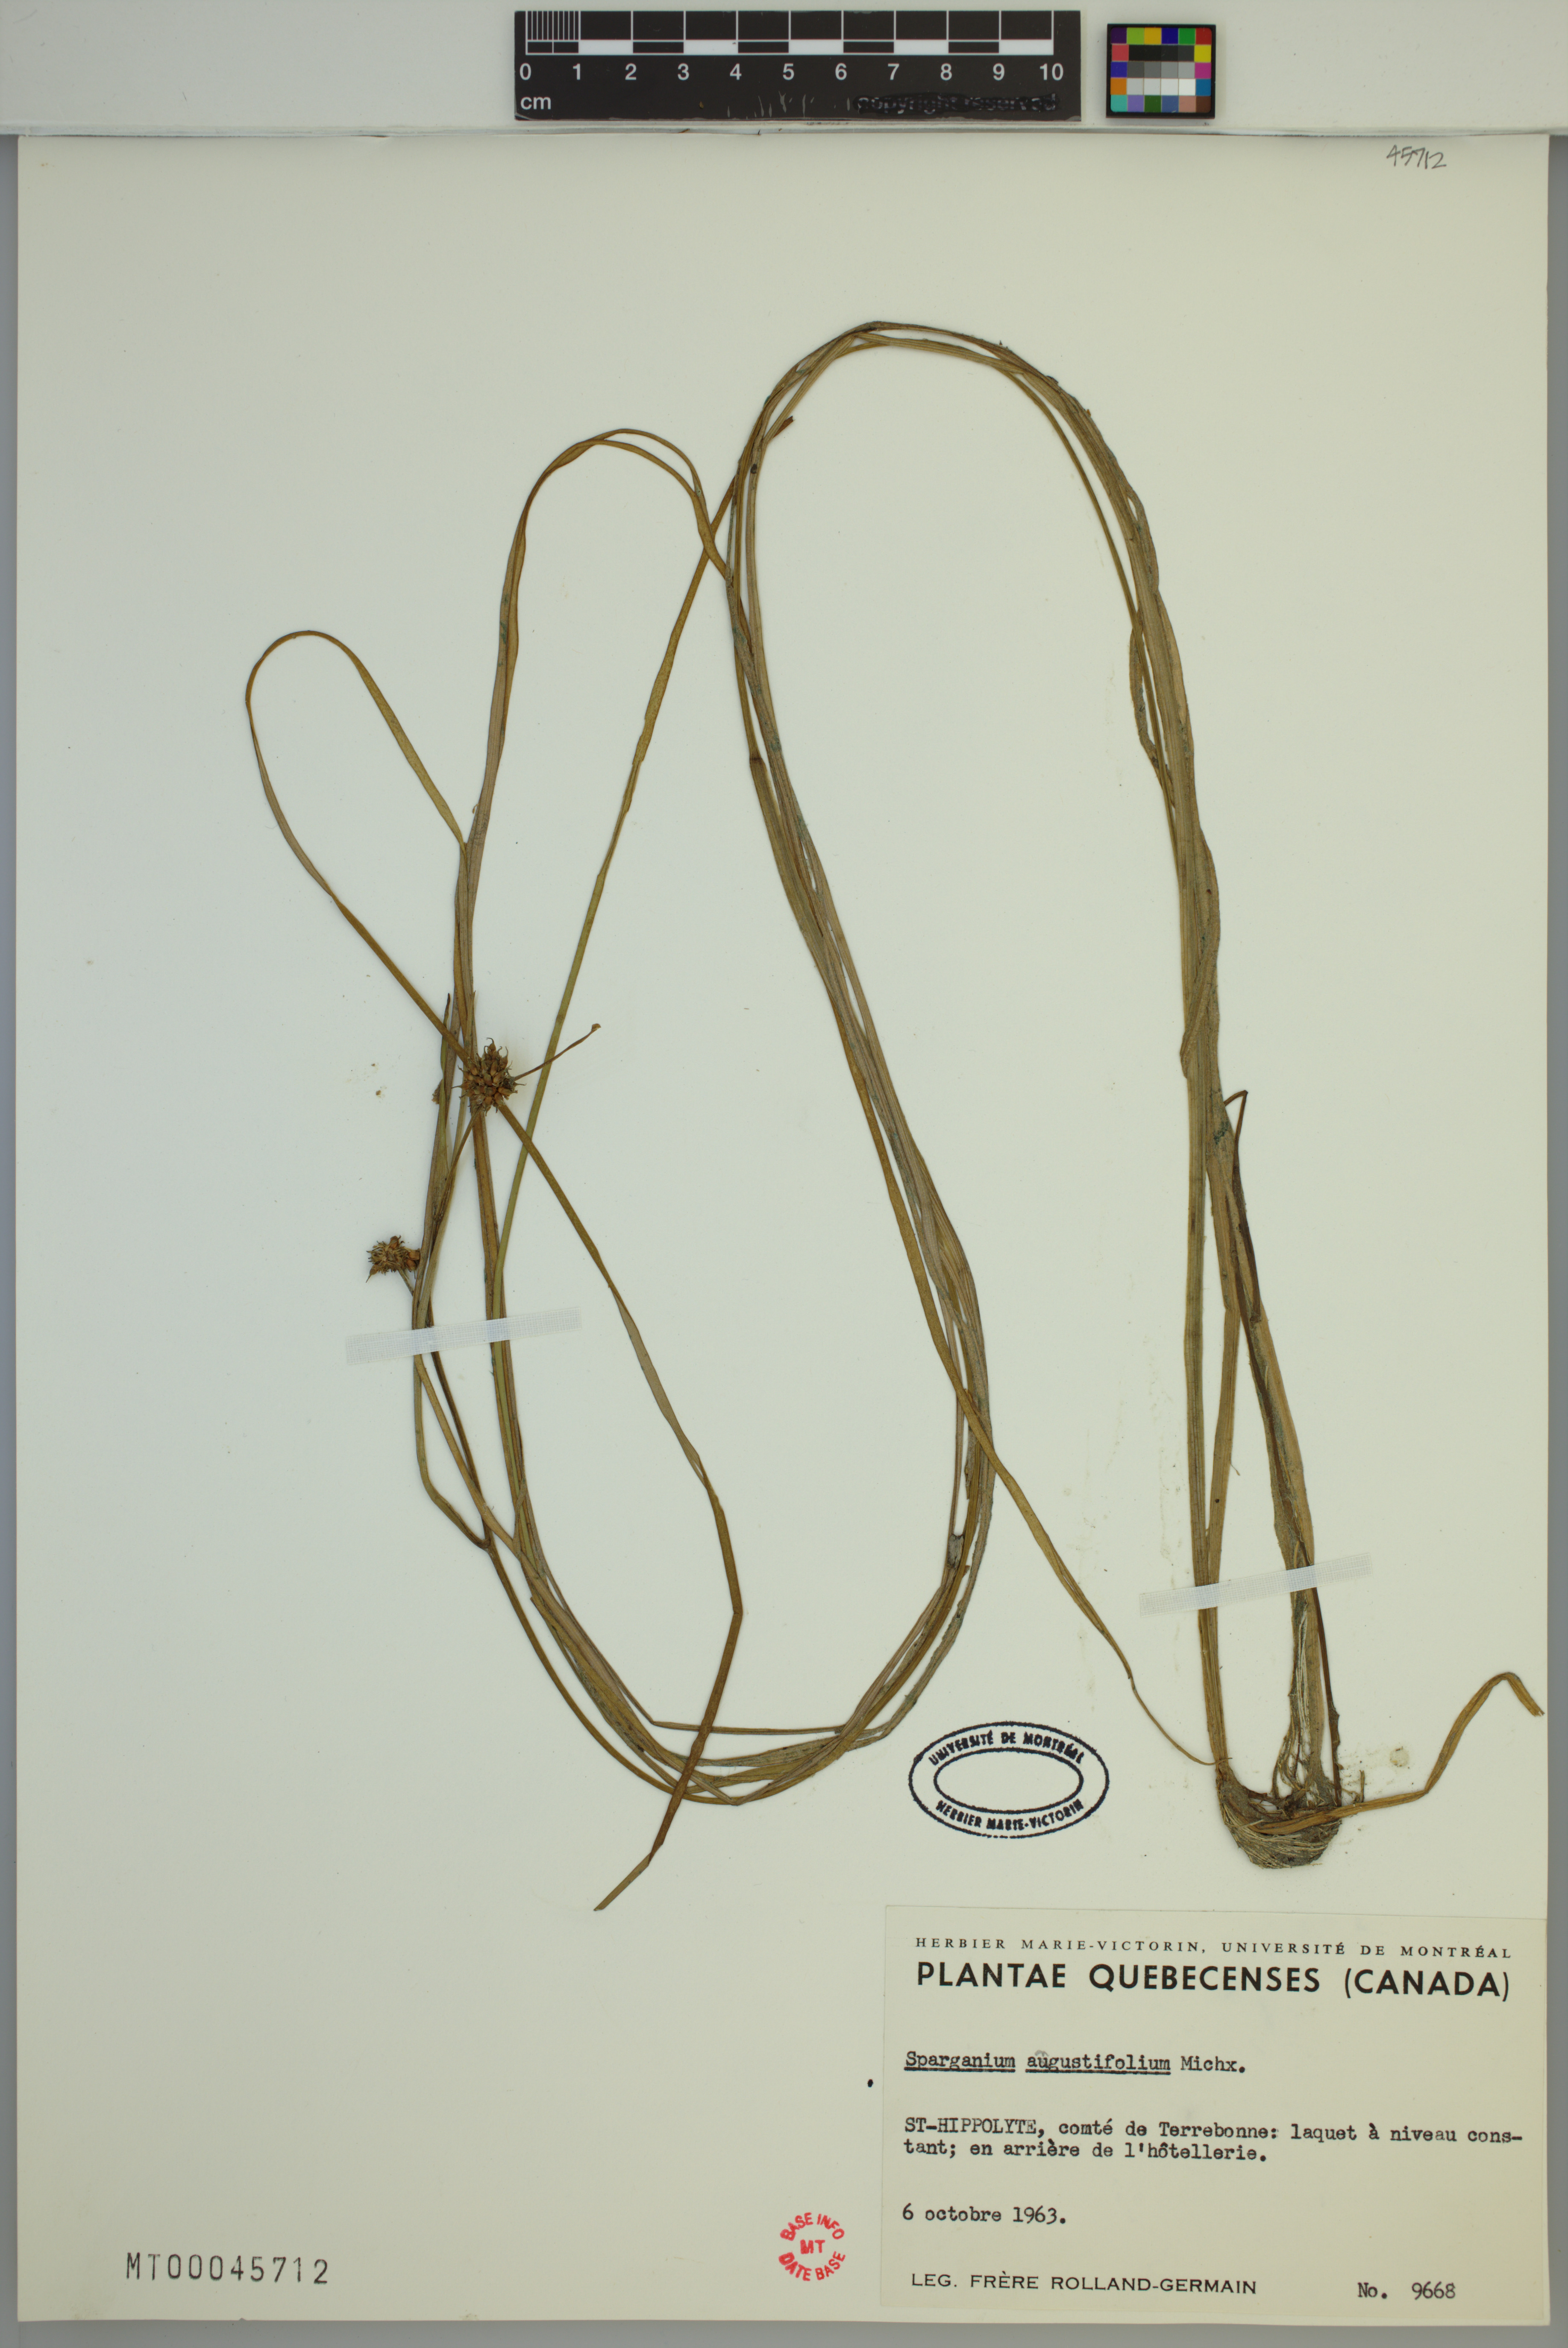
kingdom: Plantae
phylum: Tracheophyta
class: Liliopsida
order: Poales
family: Typhaceae
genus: Sparganium
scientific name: Sparganium angustifolium
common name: Floating bur-reed
